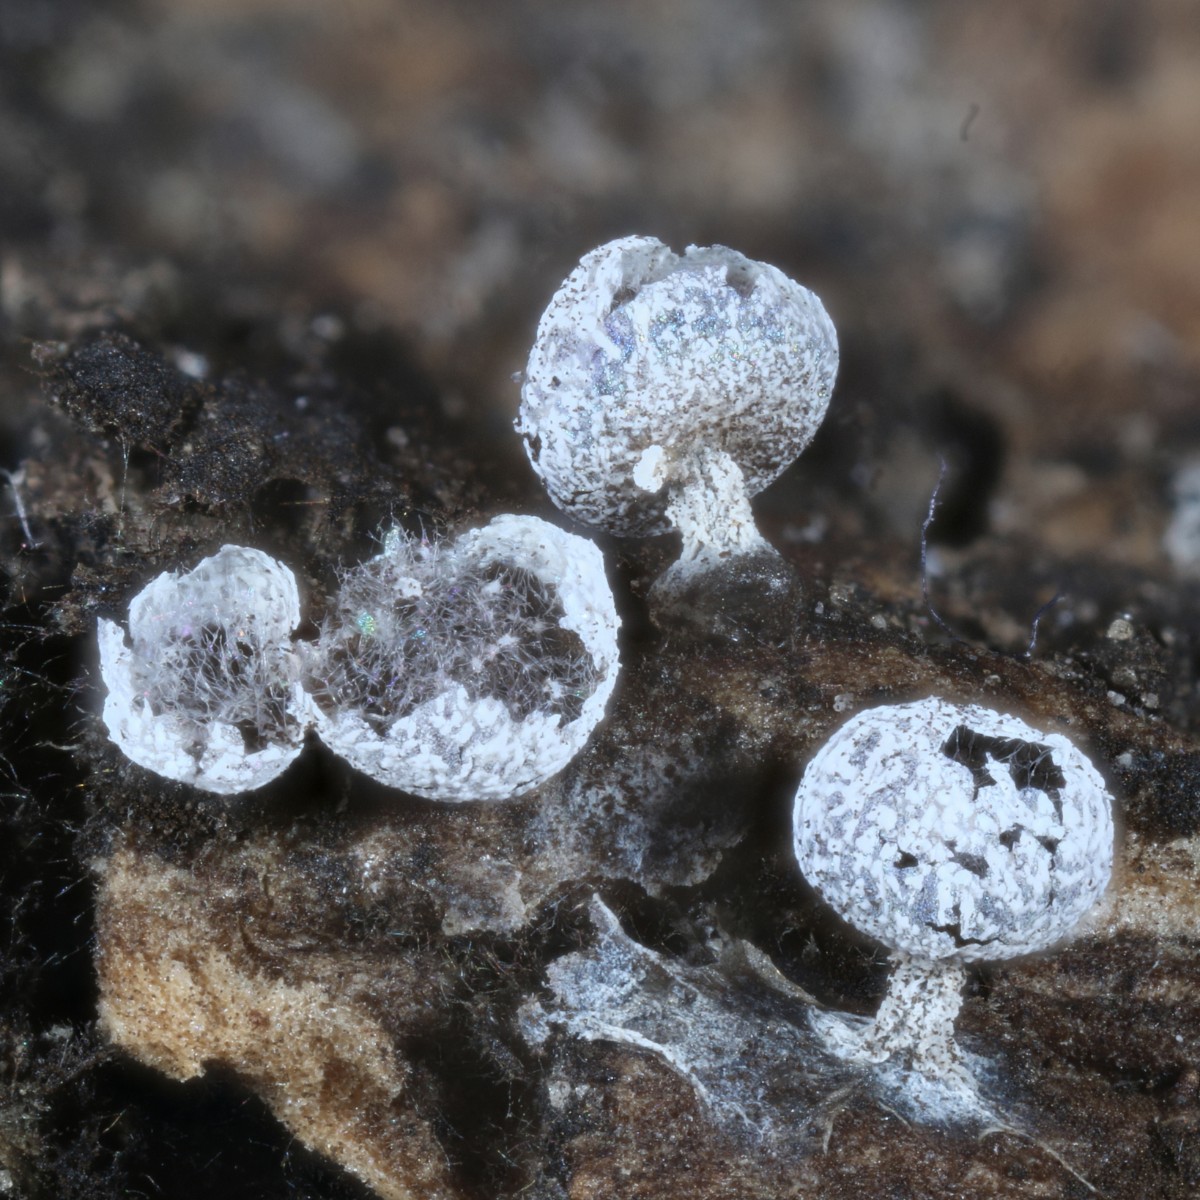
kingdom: Protozoa
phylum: Mycetozoa
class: Myxomycetes
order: Physarales
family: Physaraceae
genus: Physarum
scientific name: Physarum leucopus
